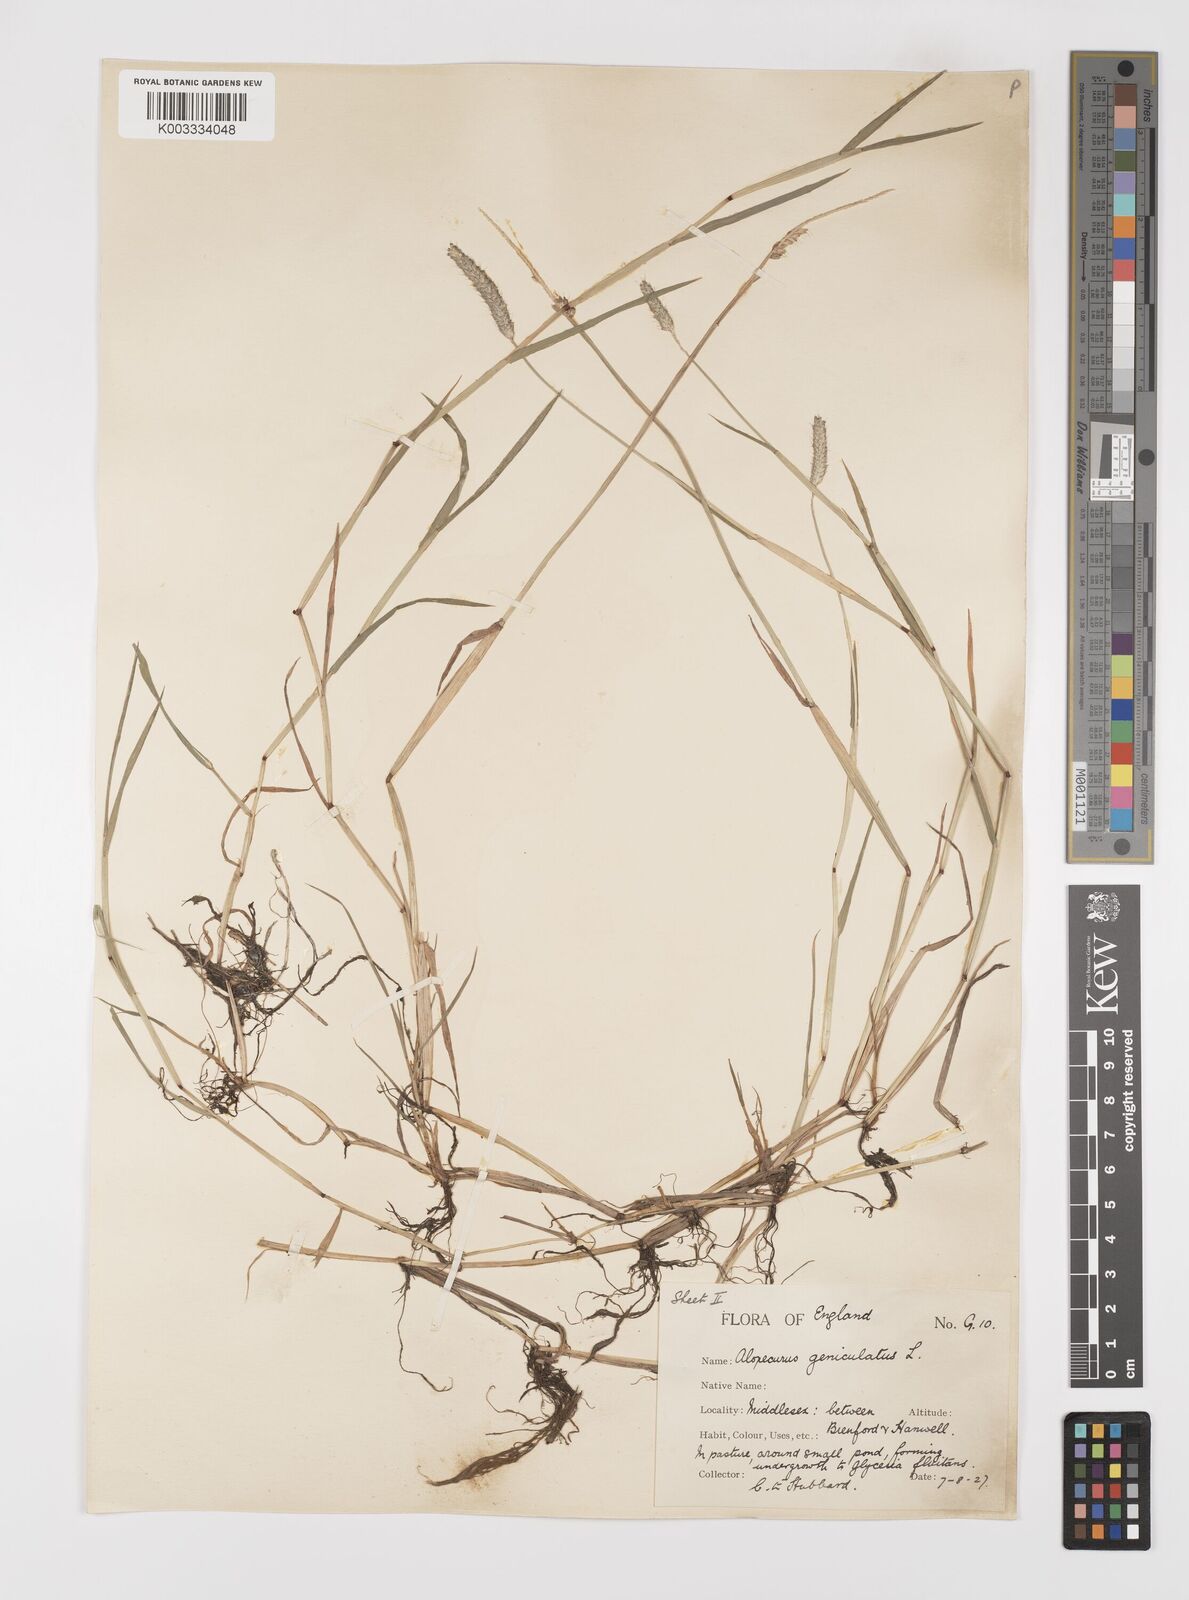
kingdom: Plantae
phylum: Tracheophyta
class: Liliopsida
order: Poales
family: Poaceae
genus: Alopecurus
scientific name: Alopecurus geniculatus
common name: Water foxtail
